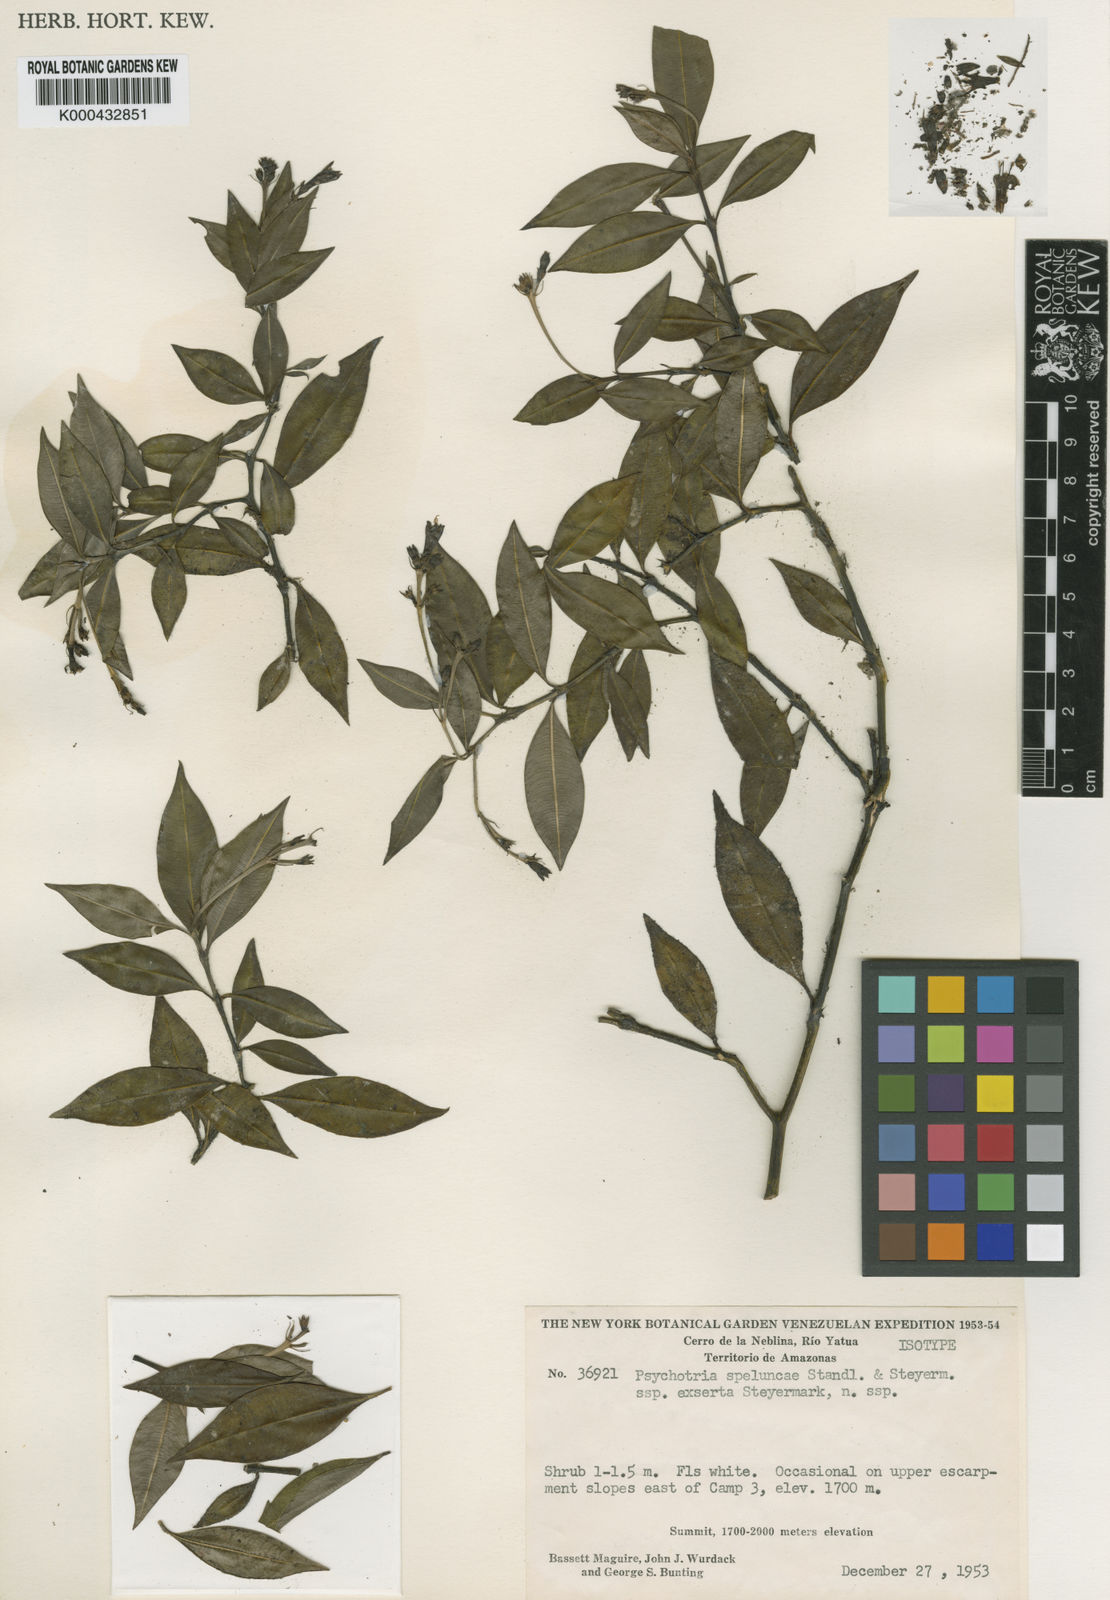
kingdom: Plantae
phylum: Tracheophyta
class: Magnoliopsida
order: Gentianales
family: Rubiaceae
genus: Palicourea
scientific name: Palicourea speluncae
